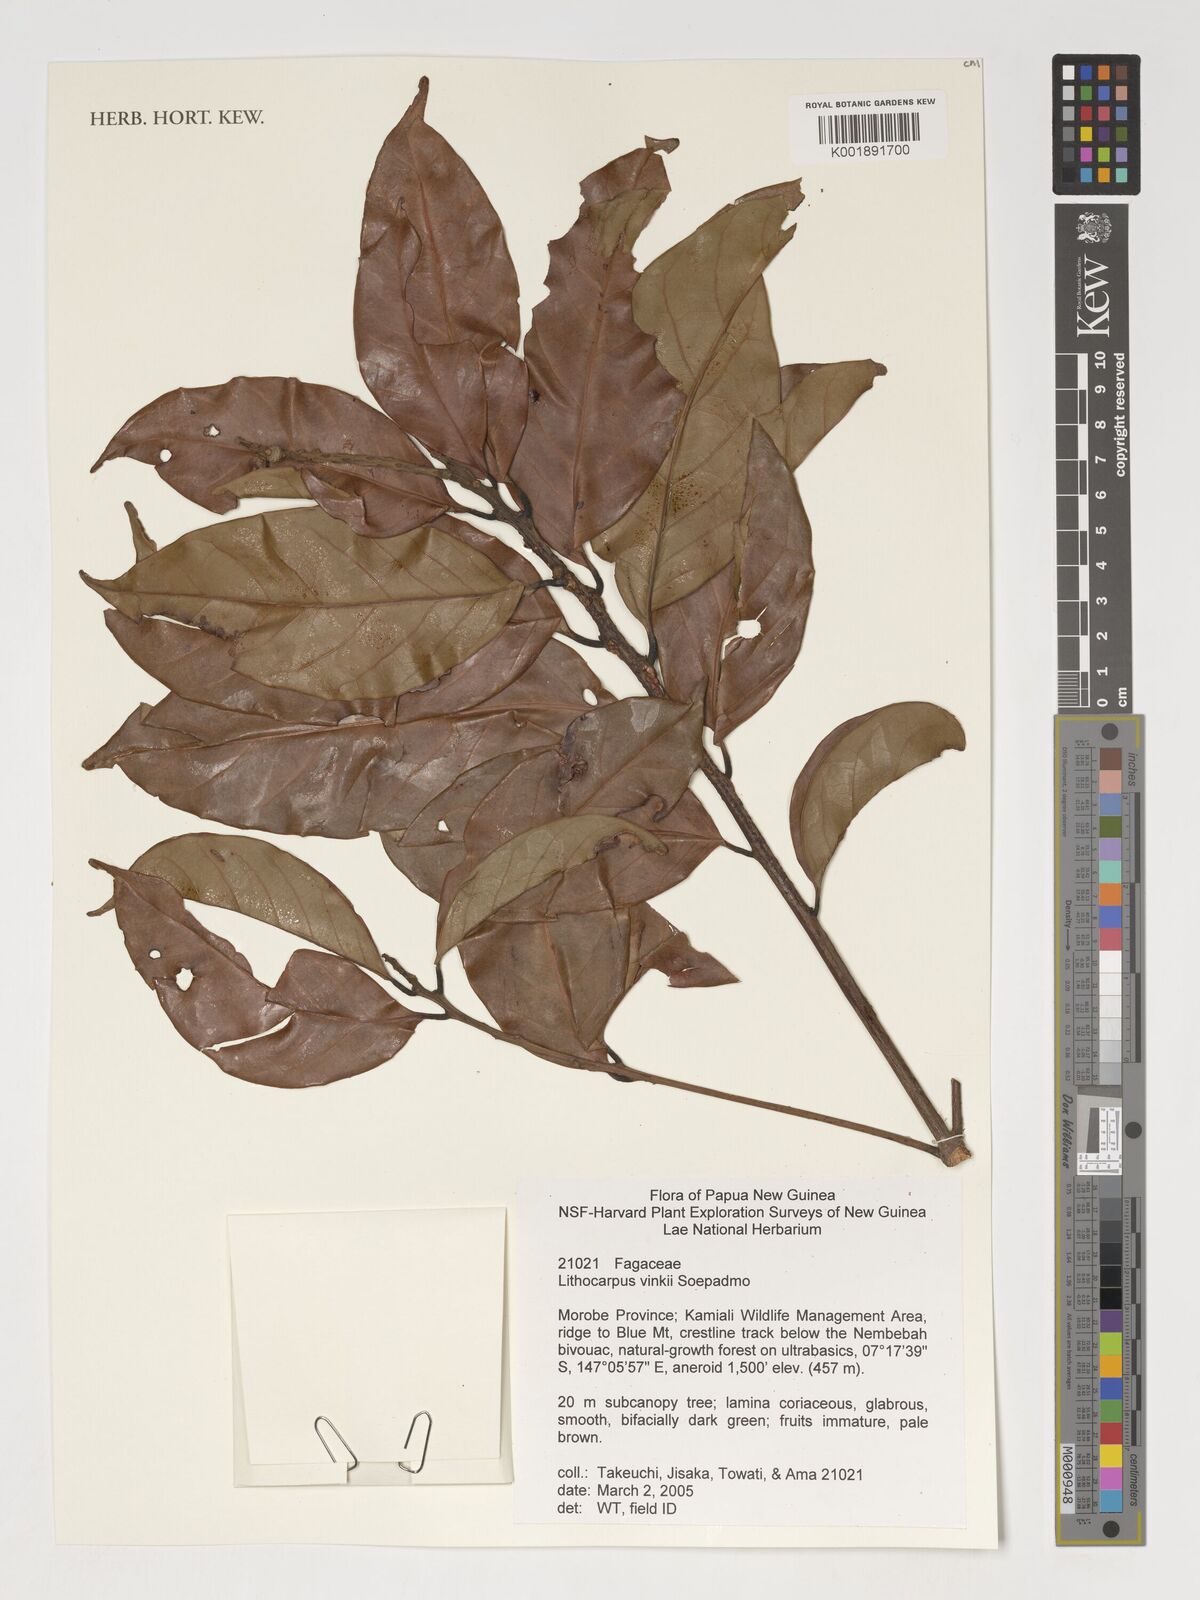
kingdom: Plantae
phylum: Tracheophyta
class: Magnoliopsida
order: Fagales
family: Fagaceae
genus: Lithocarpus
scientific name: Lithocarpus vinkii
